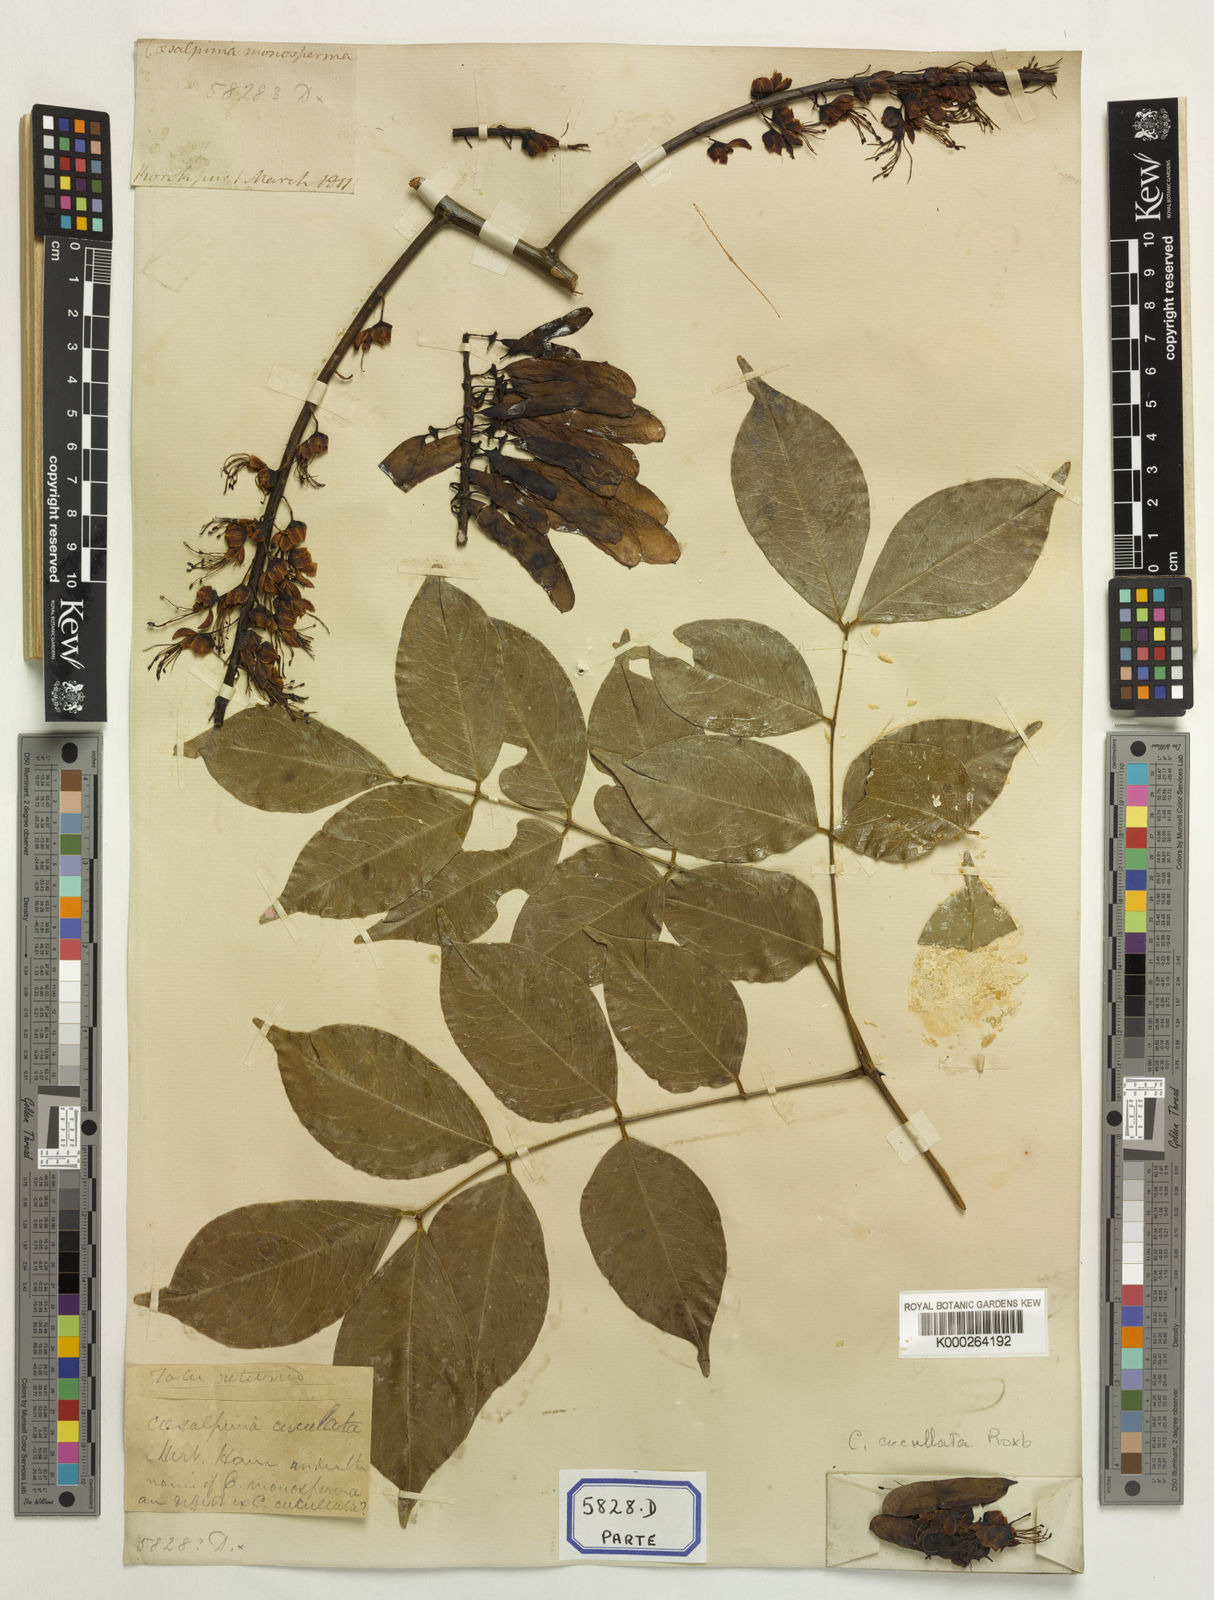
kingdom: Plantae
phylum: Tracheophyta
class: Magnoliopsida
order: Fabales
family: Fabaceae
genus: Mezoneuron
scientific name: Mezoneuron cucullatum
